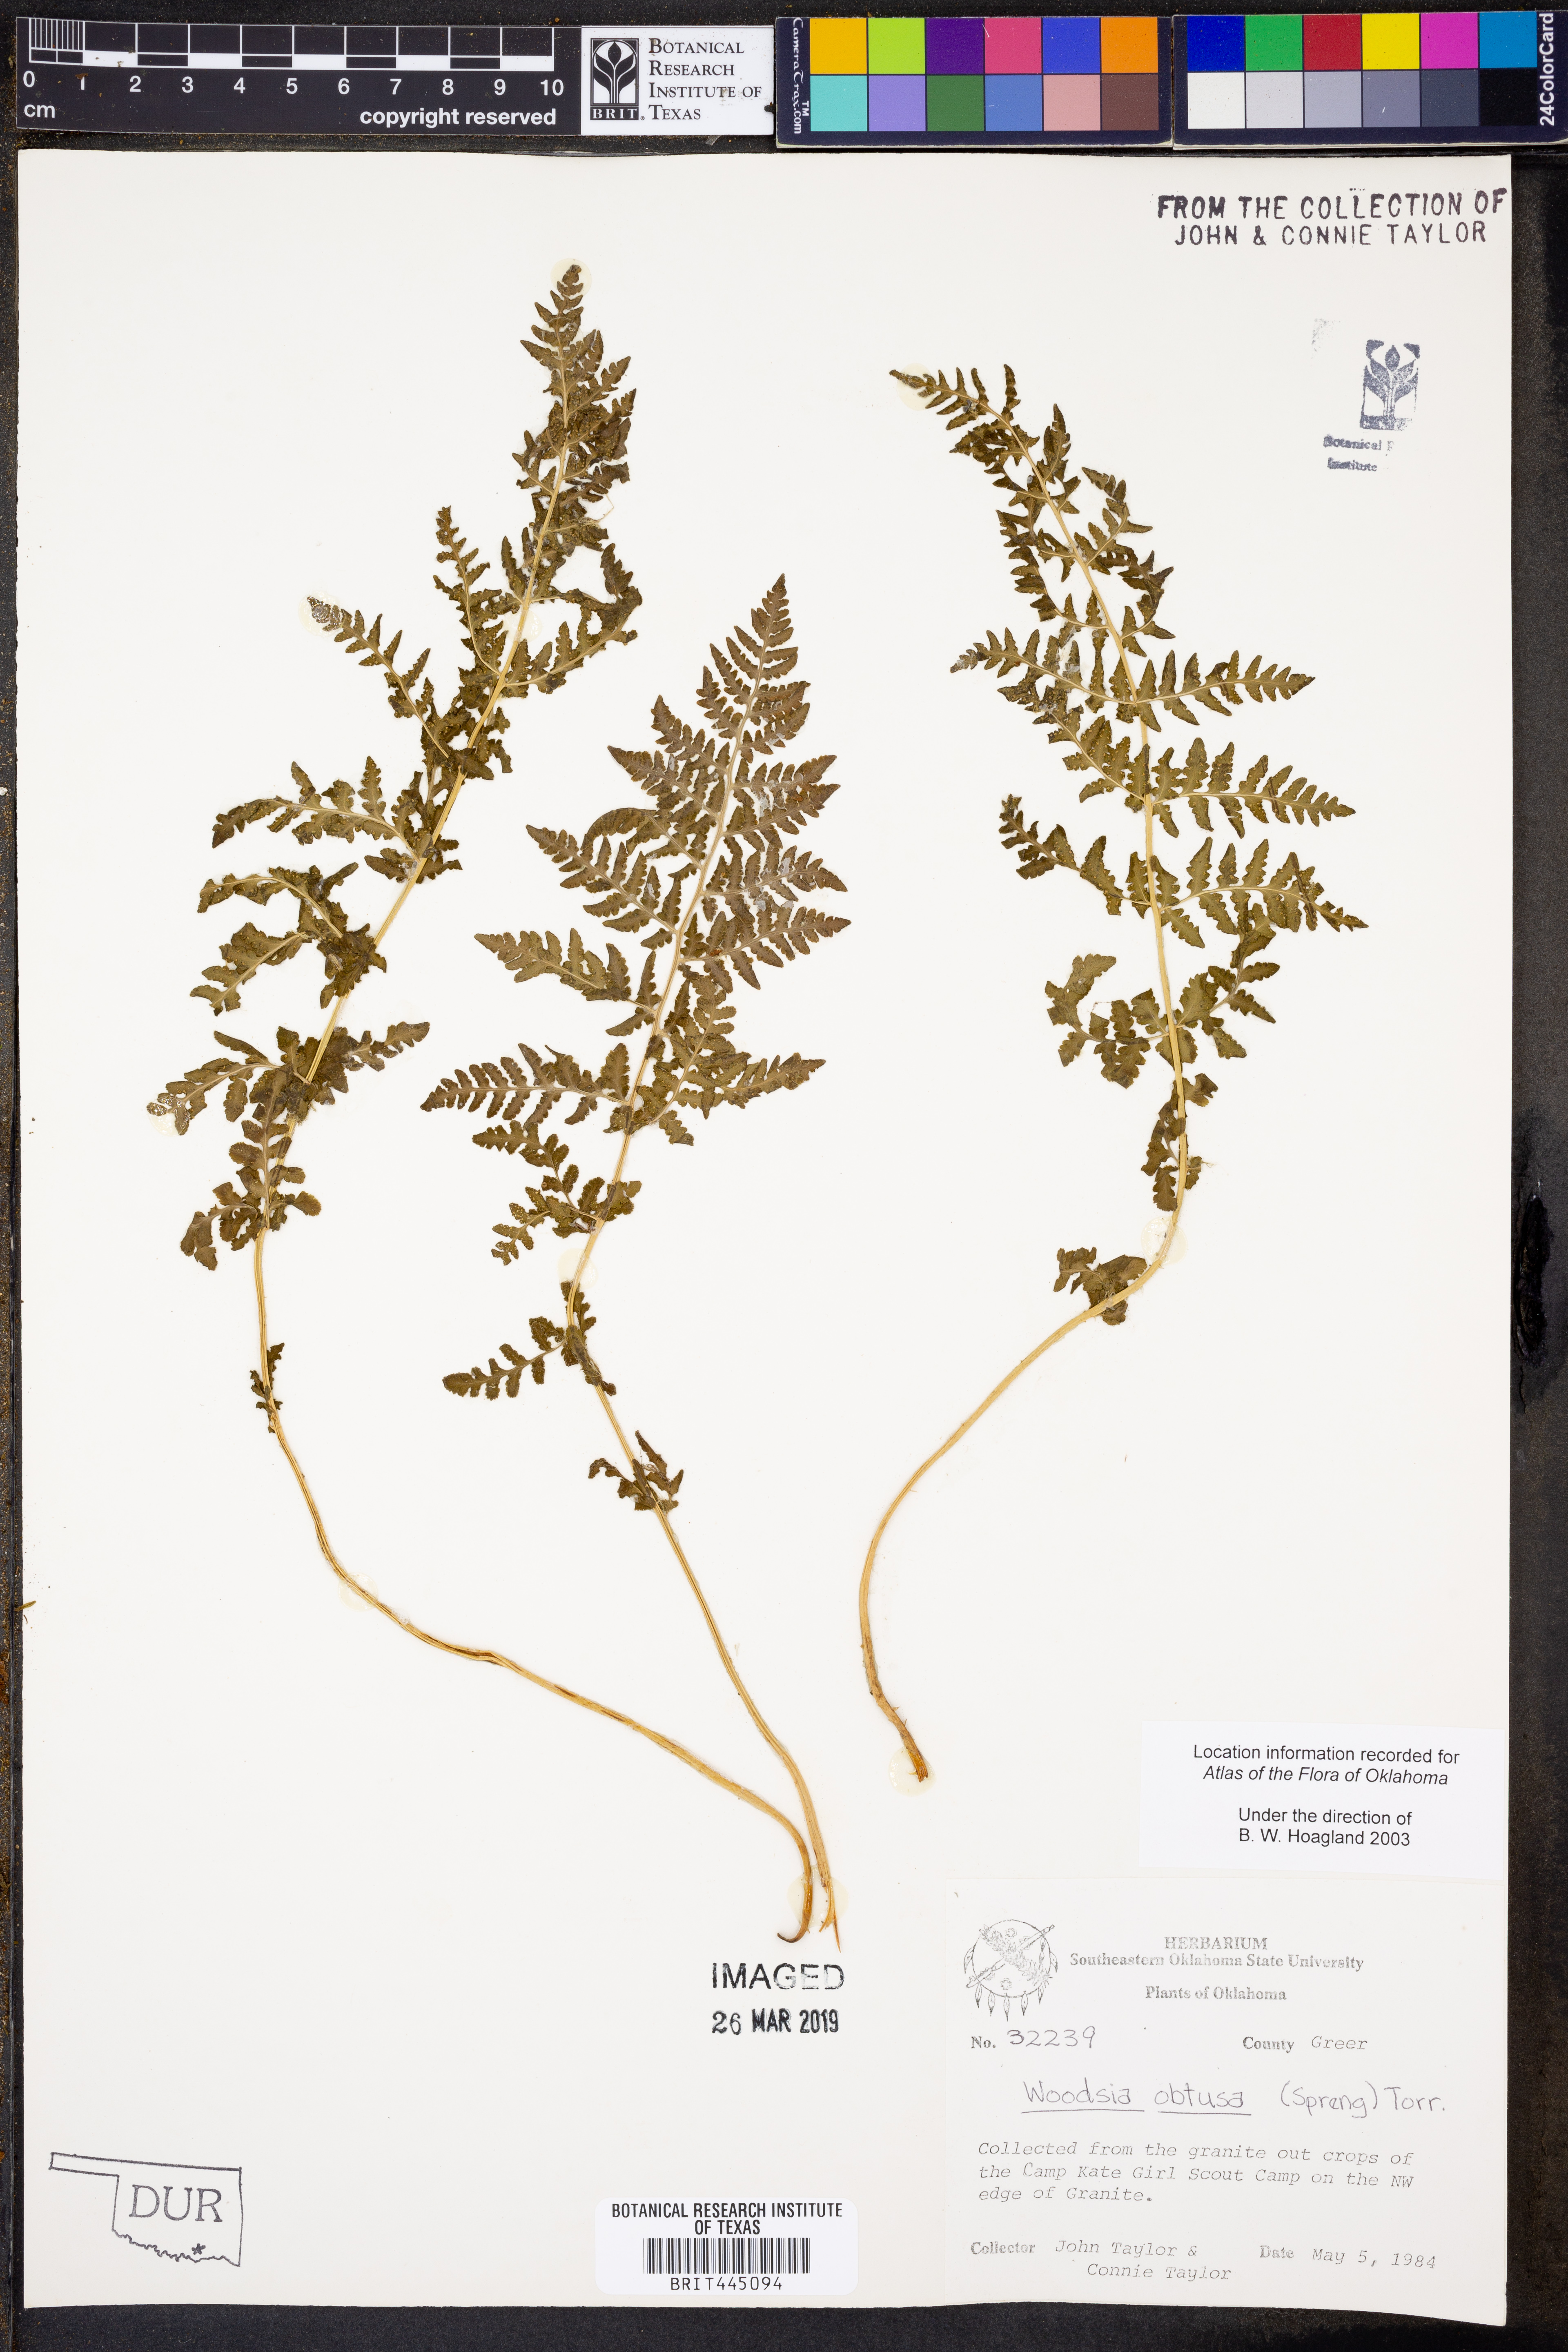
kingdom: Plantae
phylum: Tracheophyta
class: Polypodiopsida
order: Polypodiales
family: Woodsiaceae
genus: Physematium
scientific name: Physematium obtusum
